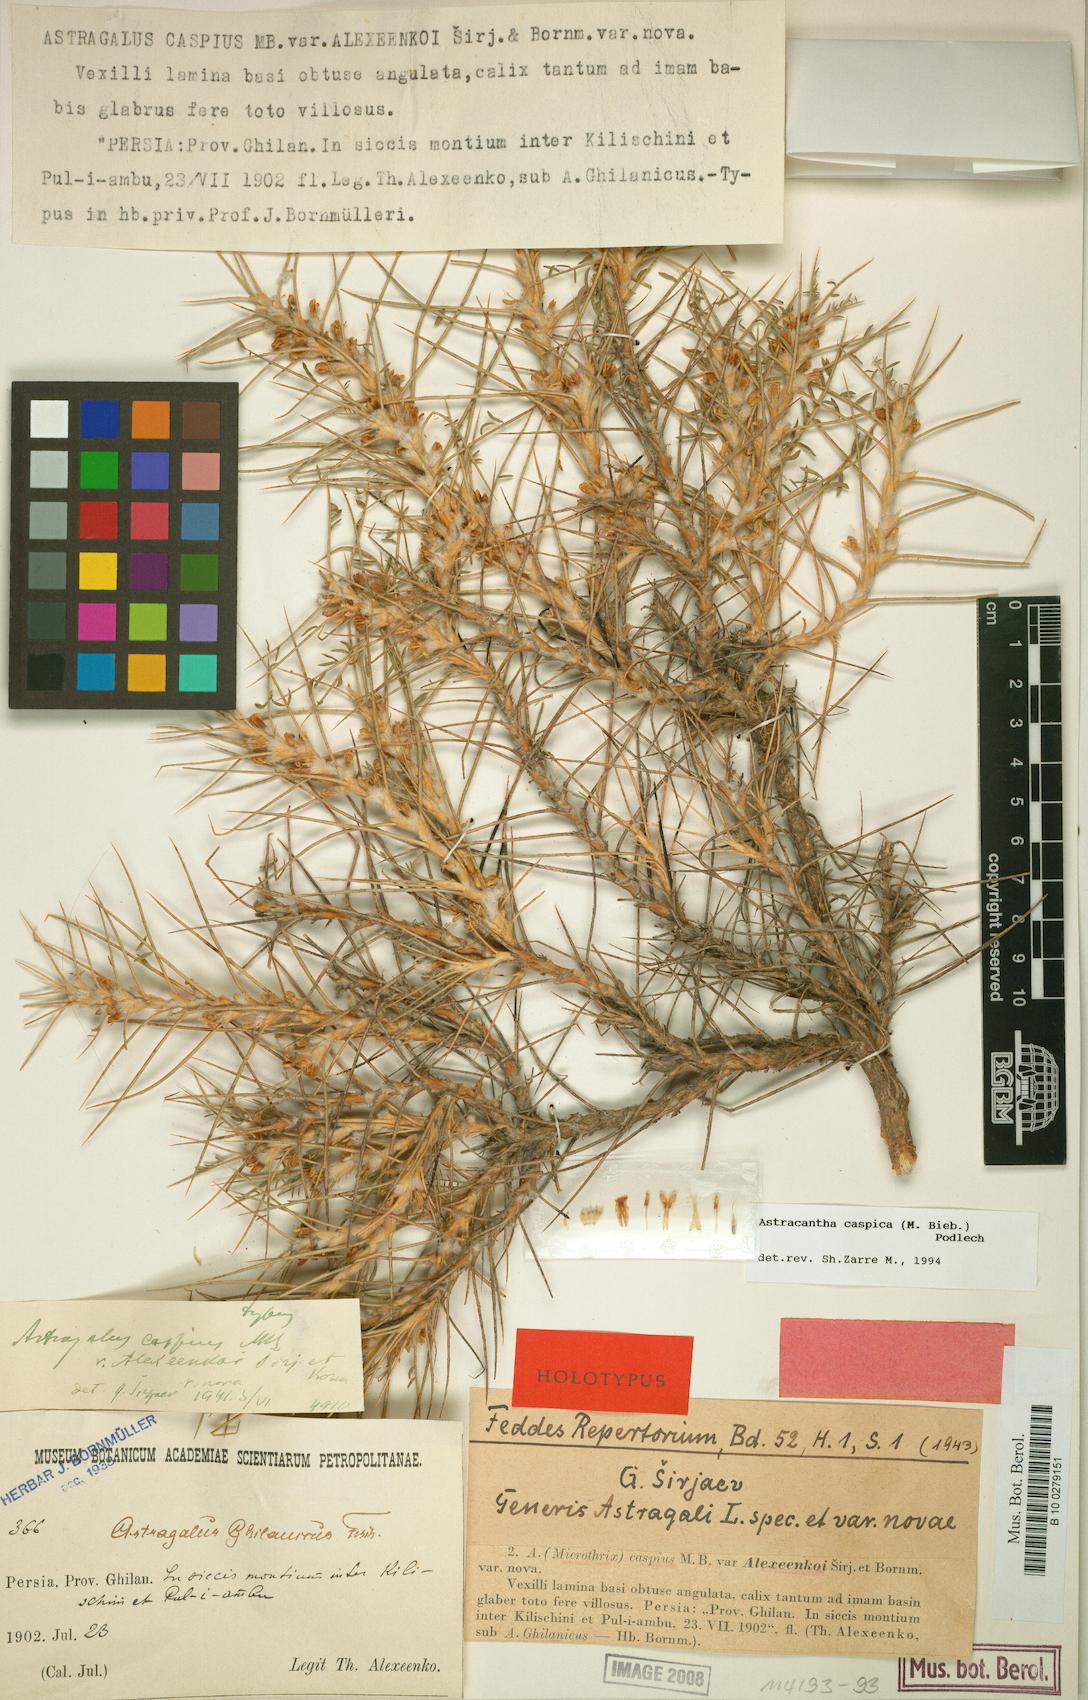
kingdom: Plantae
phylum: Tracheophyta
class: Magnoliopsida
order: Fabales
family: Fabaceae
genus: Astragalus
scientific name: Astragalus caspicus
